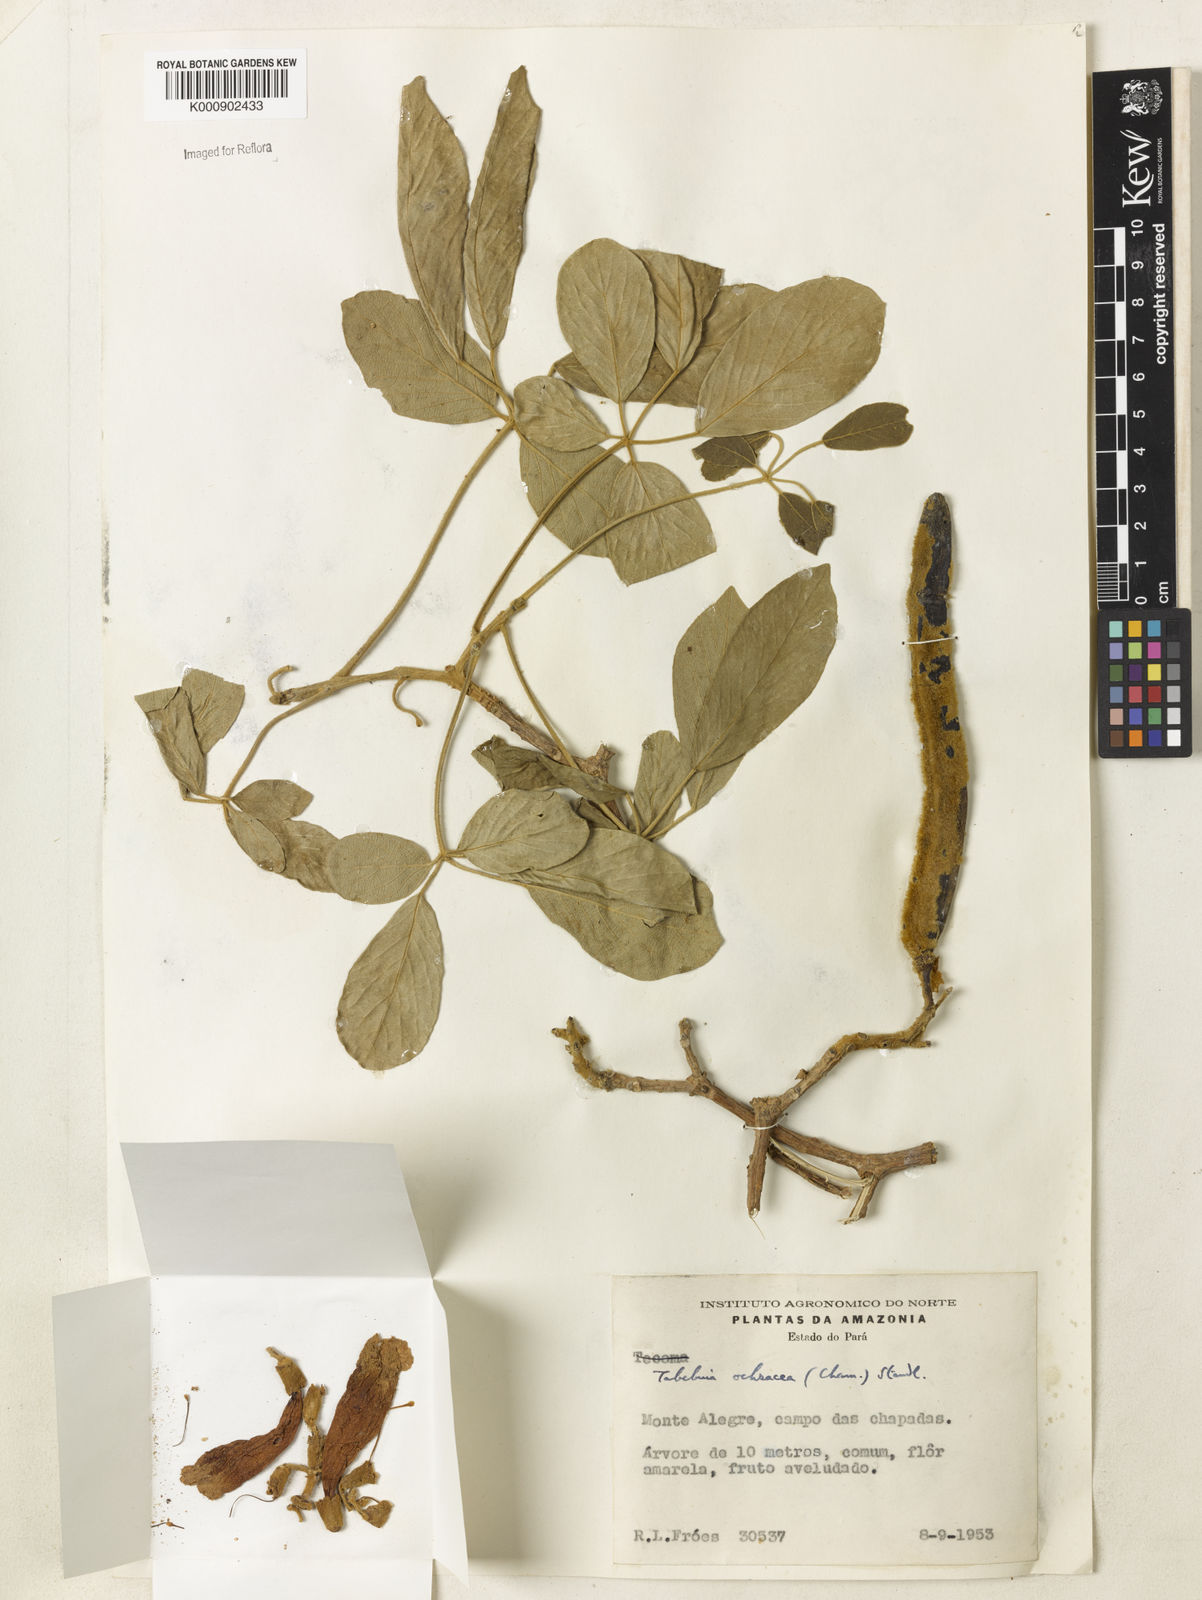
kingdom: Plantae
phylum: Tracheophyta
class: Magnoliopsida
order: Lamiales
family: Bignoniaceae
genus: Handroanthus
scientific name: Handroanthus ochraceus
